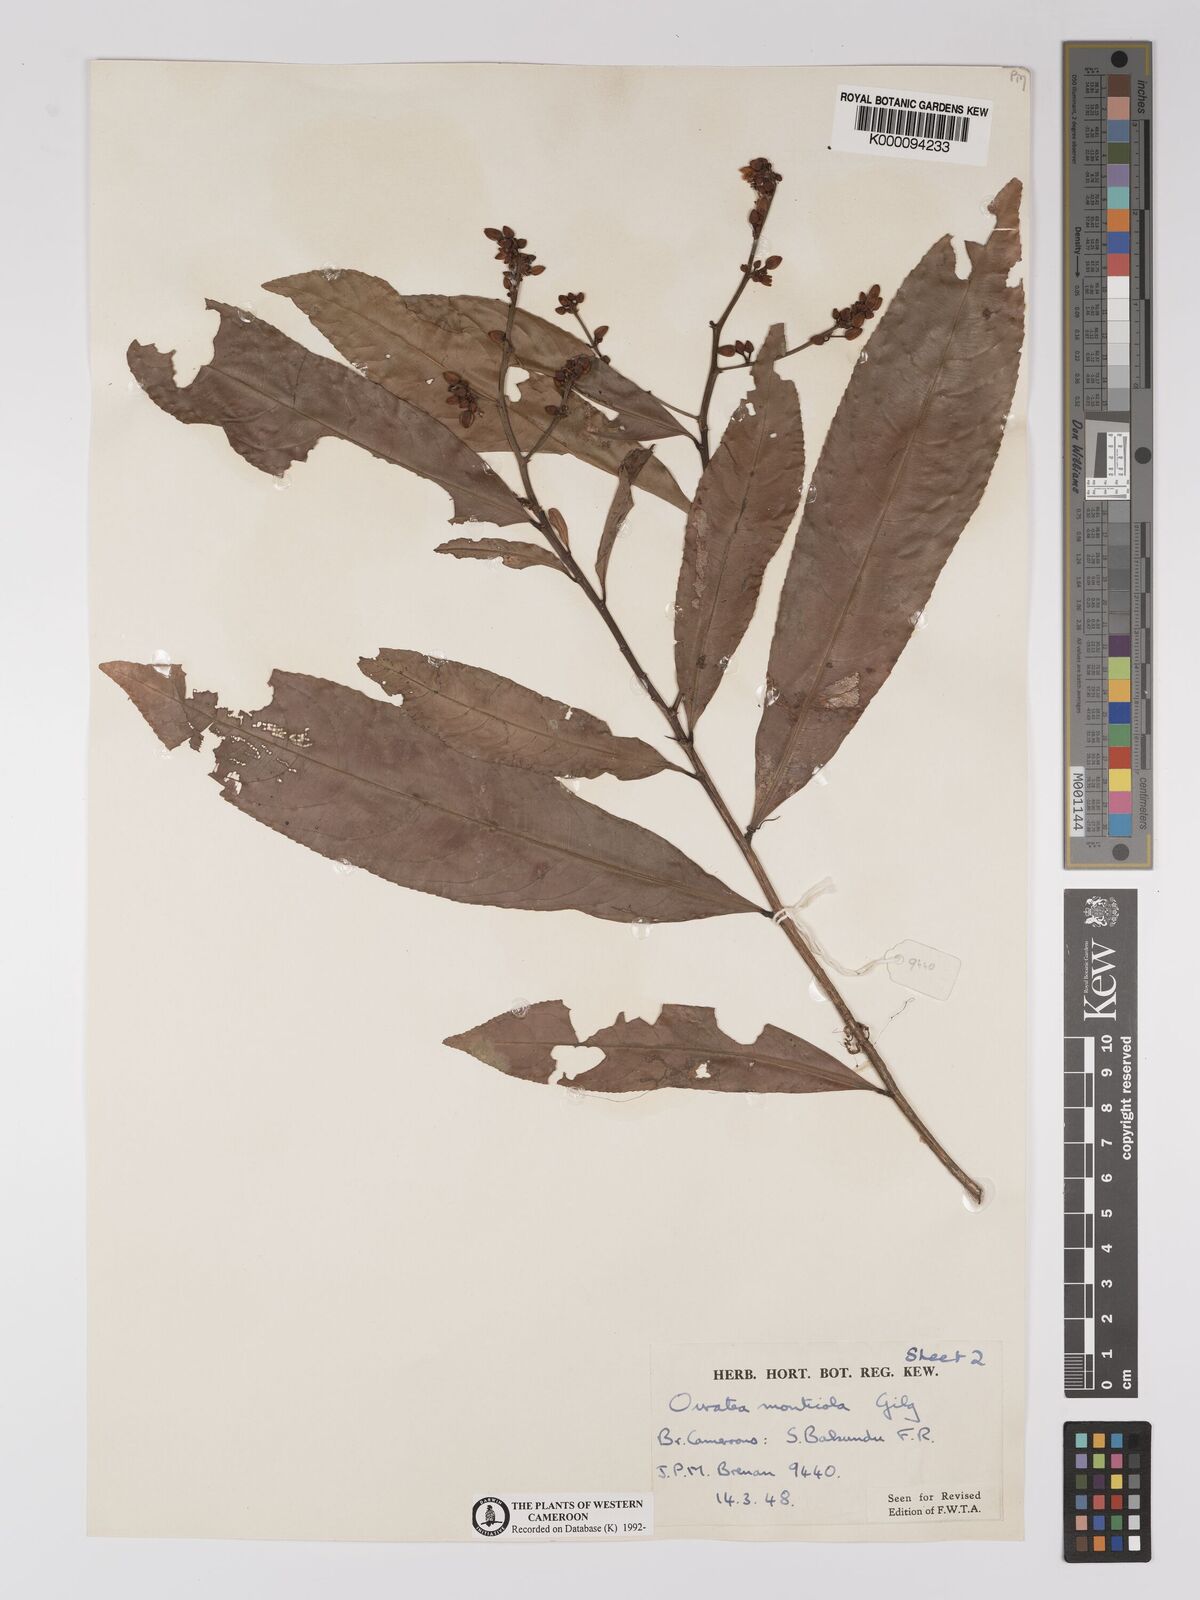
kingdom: Plantae
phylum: Tracheophyta
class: Magnoliopsida
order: Malpighiales
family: Ochnaceae
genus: Campylospermum
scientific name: Campylospermum flavum
